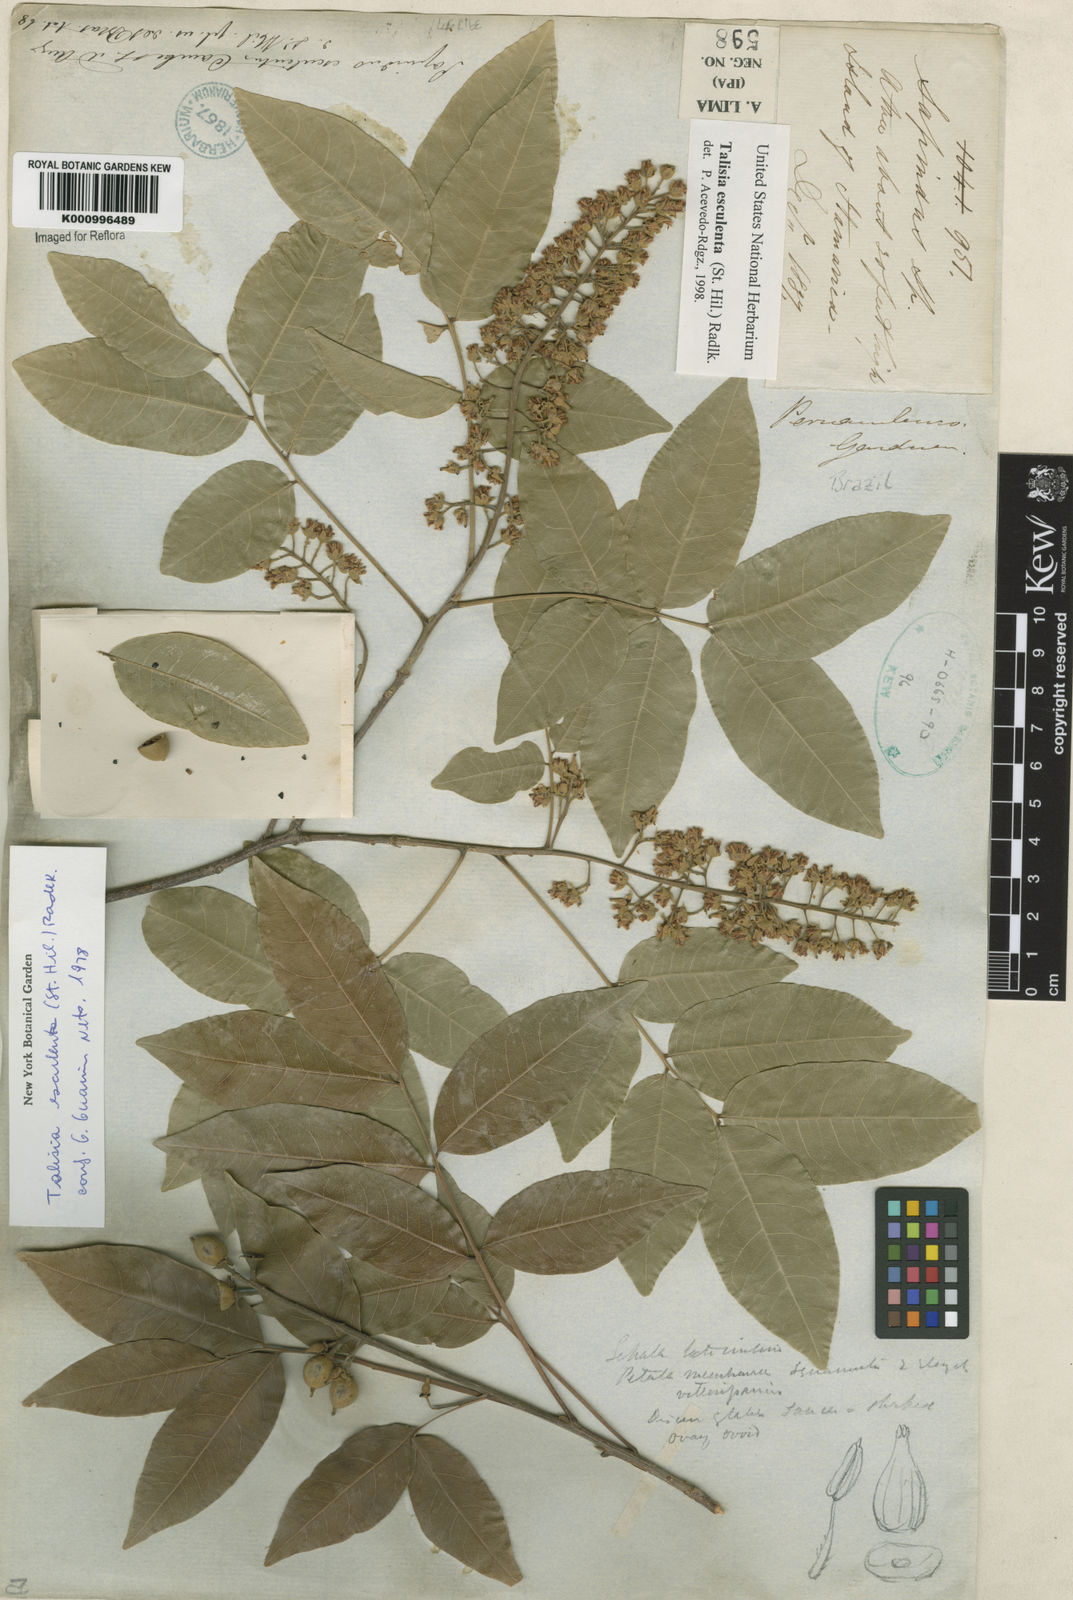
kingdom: Plantae
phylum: Tracheophyta
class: Magnoliopsida
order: Sapindales
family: Sapindaceae
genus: Talisia
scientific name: Talisia
